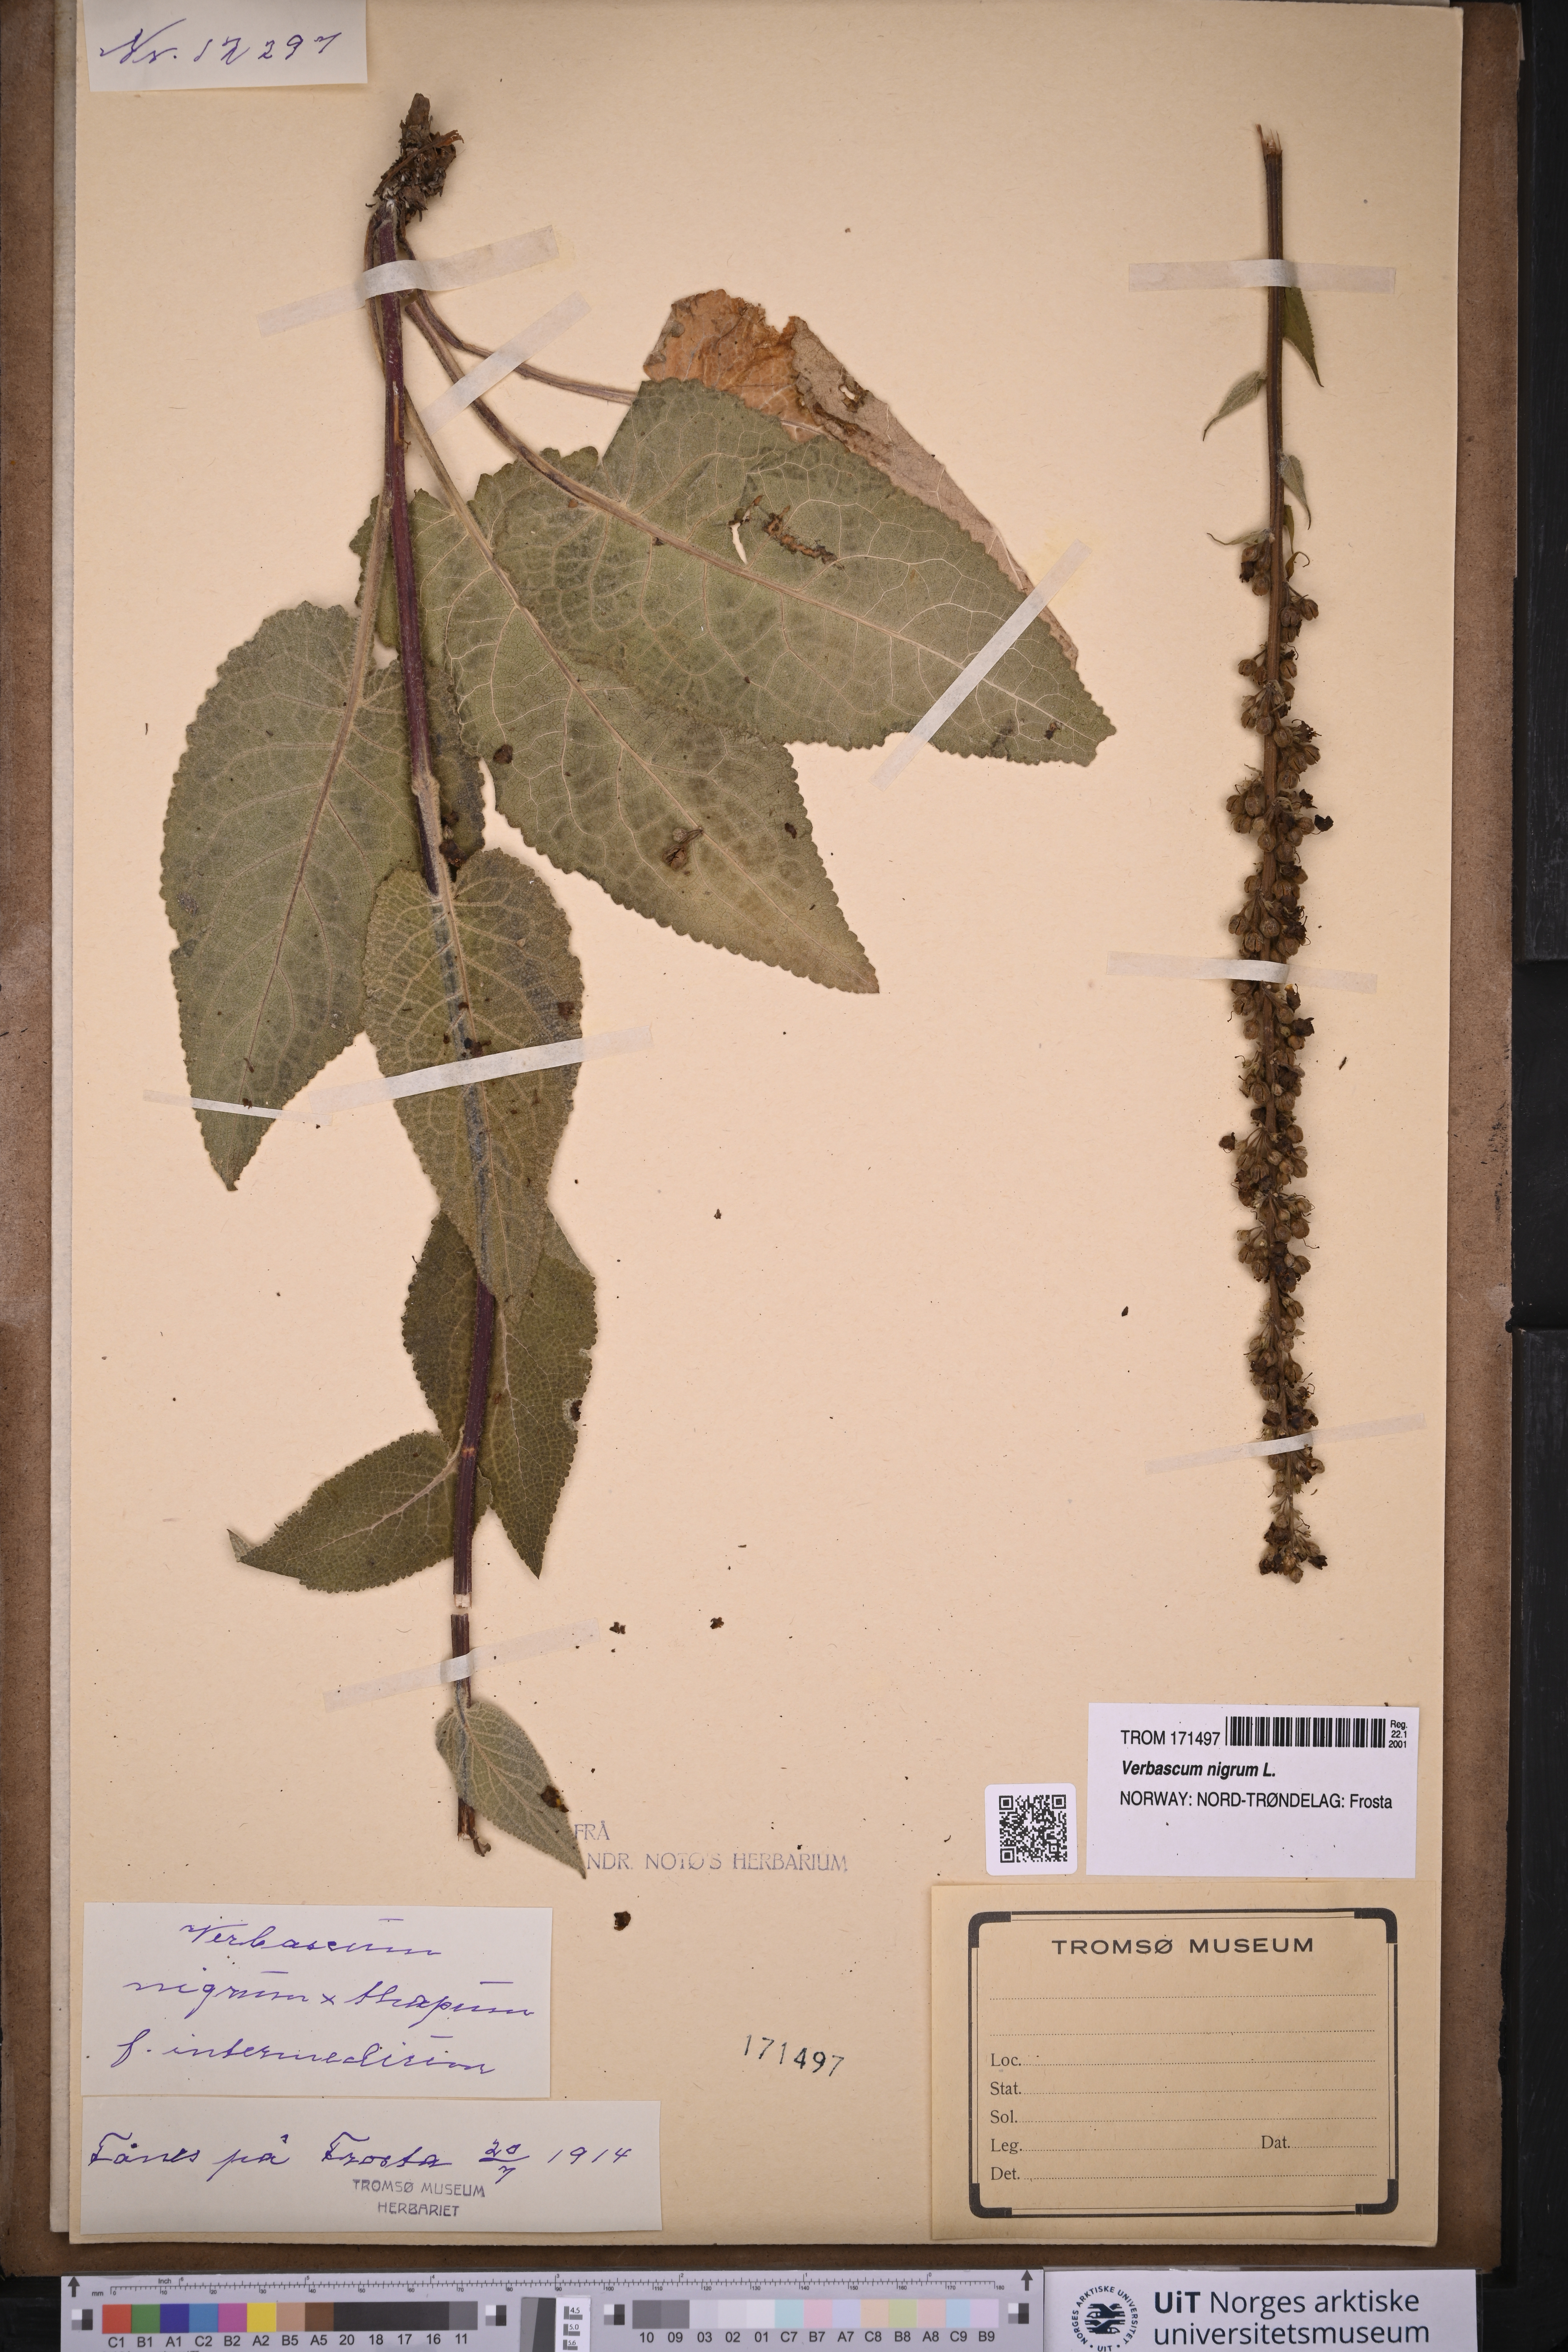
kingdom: Plantae
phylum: Tracheophyta
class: Magnoliopsida
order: Lamiales
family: Scrophulariaceae
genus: Verbascum
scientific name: Verbascum nigrum
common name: Dark mullein
